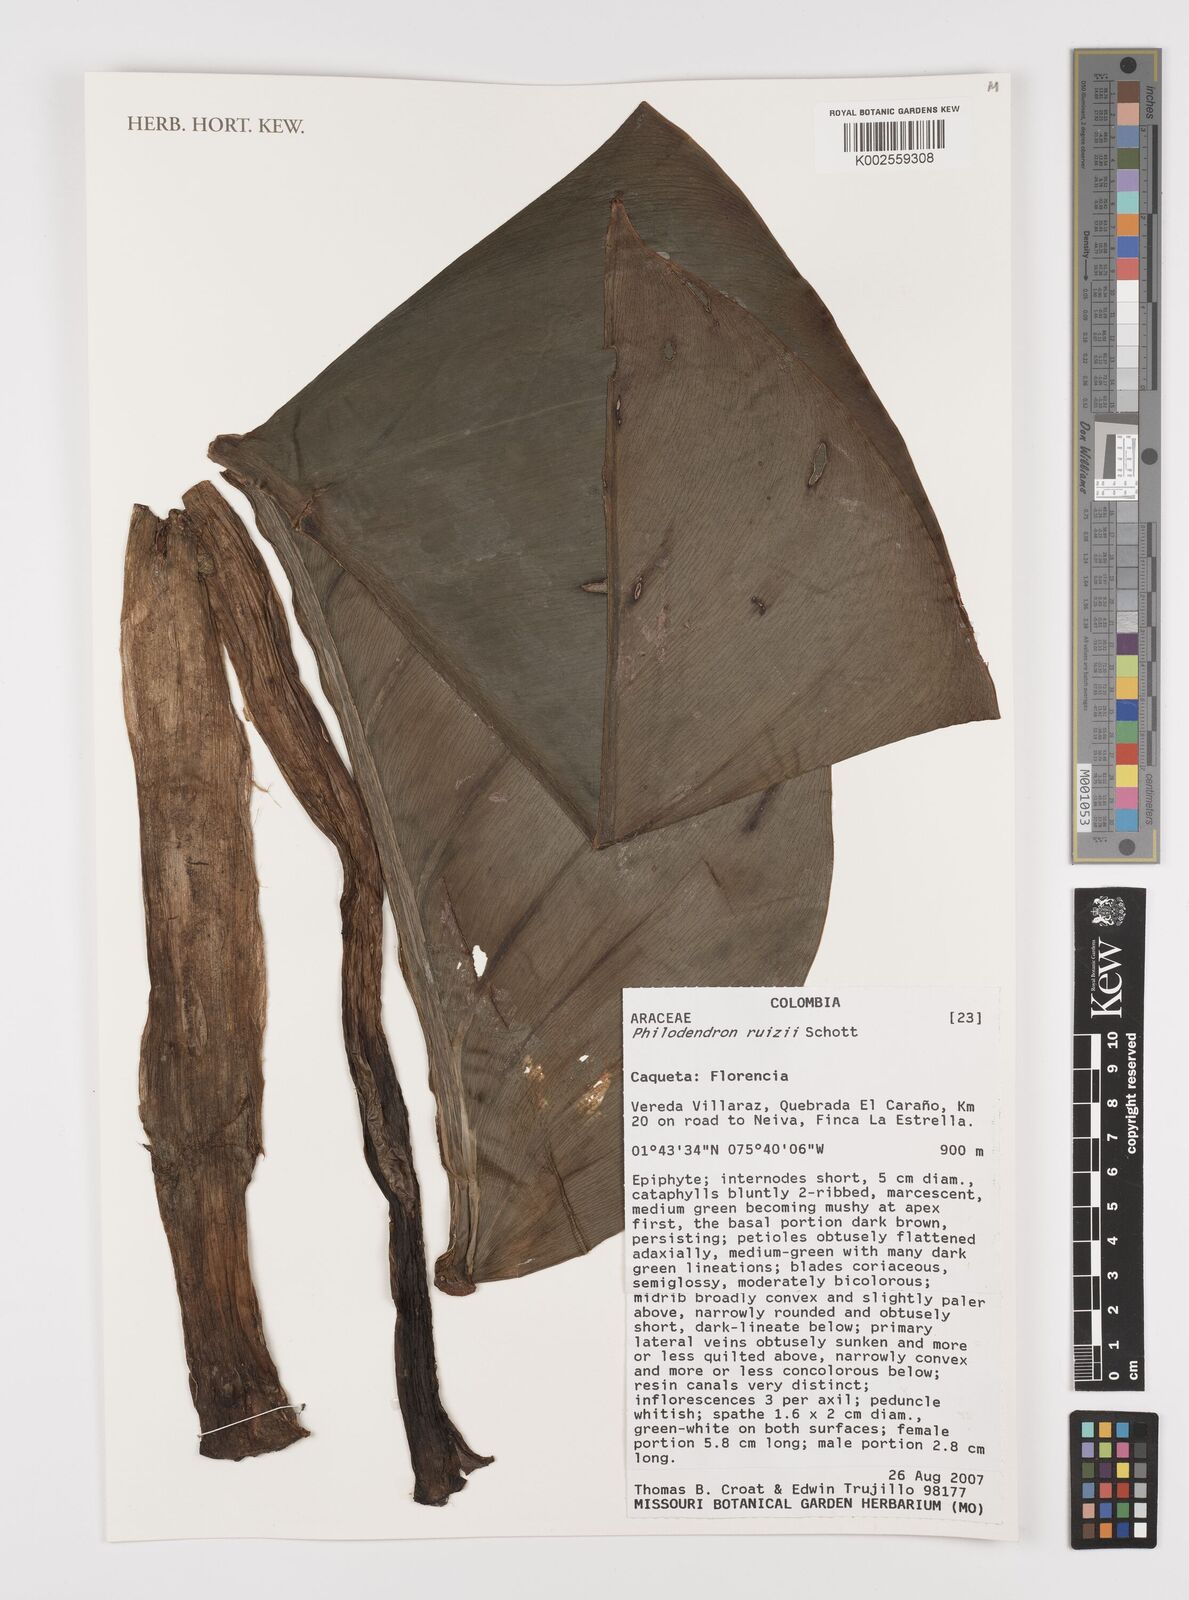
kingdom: Plantae
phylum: Tracheophyta
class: Liliopsida
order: Alismatales
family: Araceae
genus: Philodendron
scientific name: Philodendron ruizii
